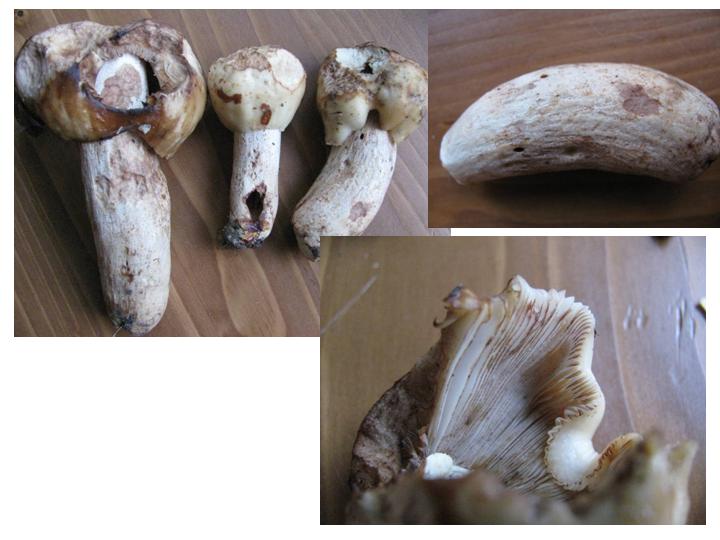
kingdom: Fungi
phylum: Basidiomycota
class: Agaricomycetes
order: Russulales
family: Russulaceae
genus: Russula
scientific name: Russula illota
